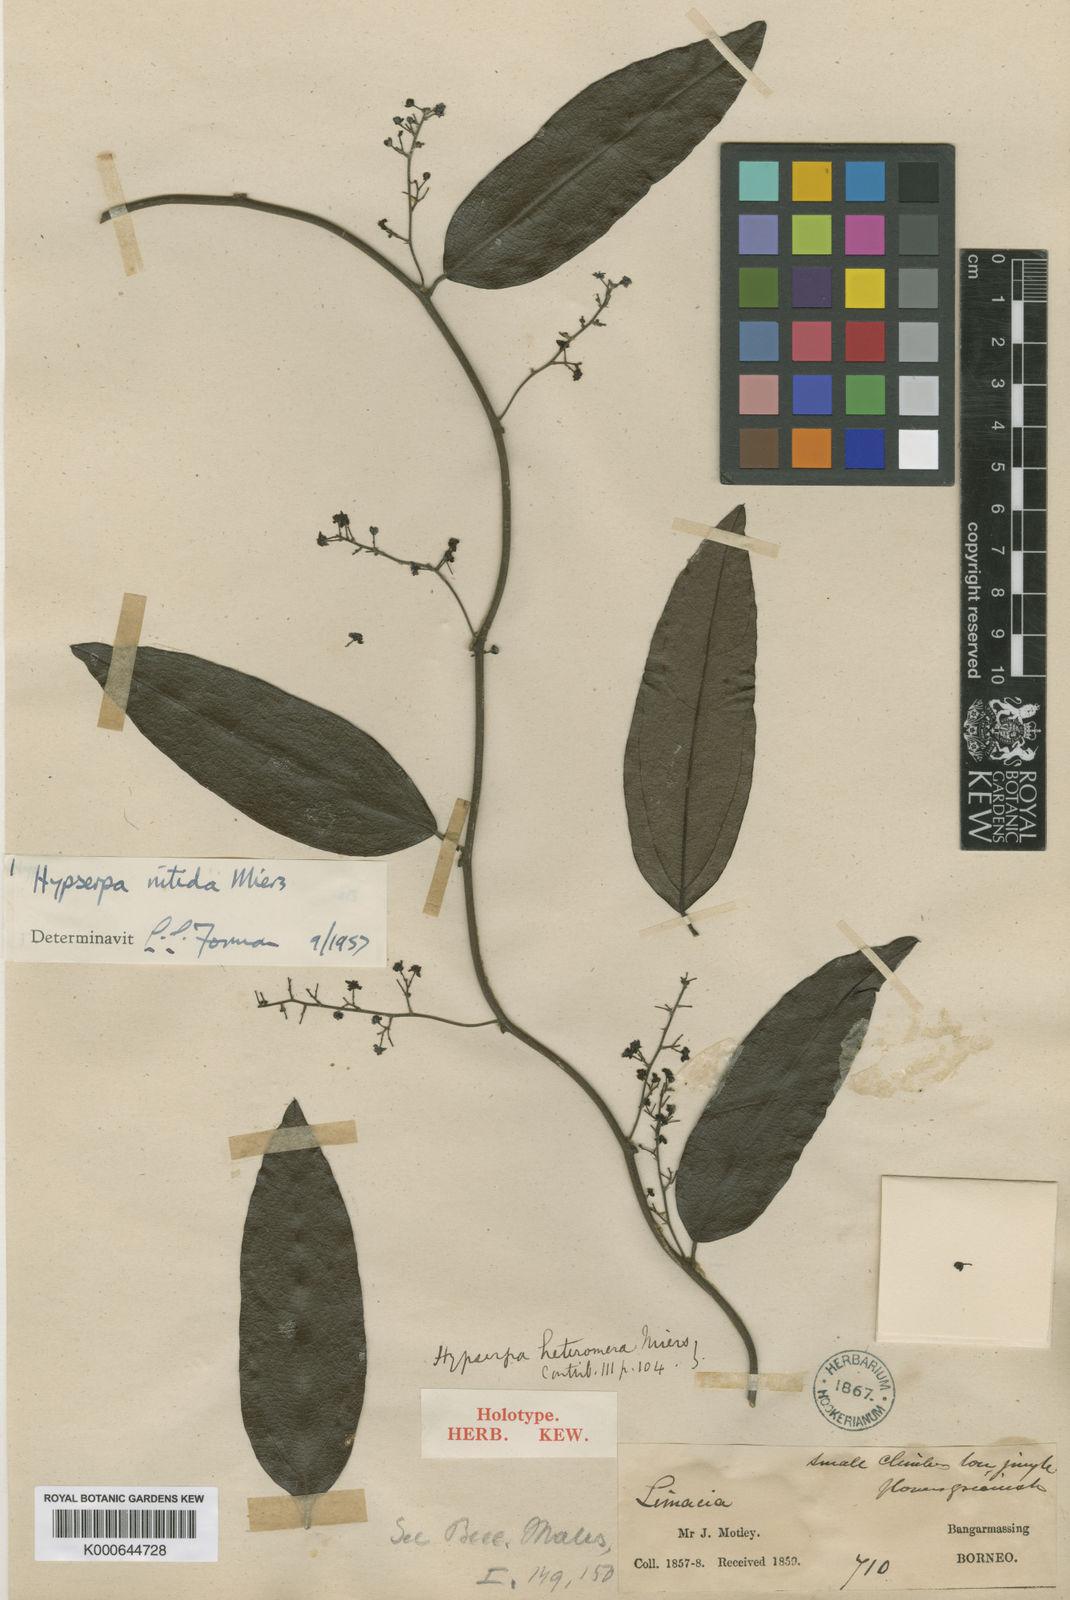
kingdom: Plantae
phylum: Tracheophyta
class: Magnoliopsida
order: Ranunculales
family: Menispermaceae
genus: Hypserpa
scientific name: Hypserpa
